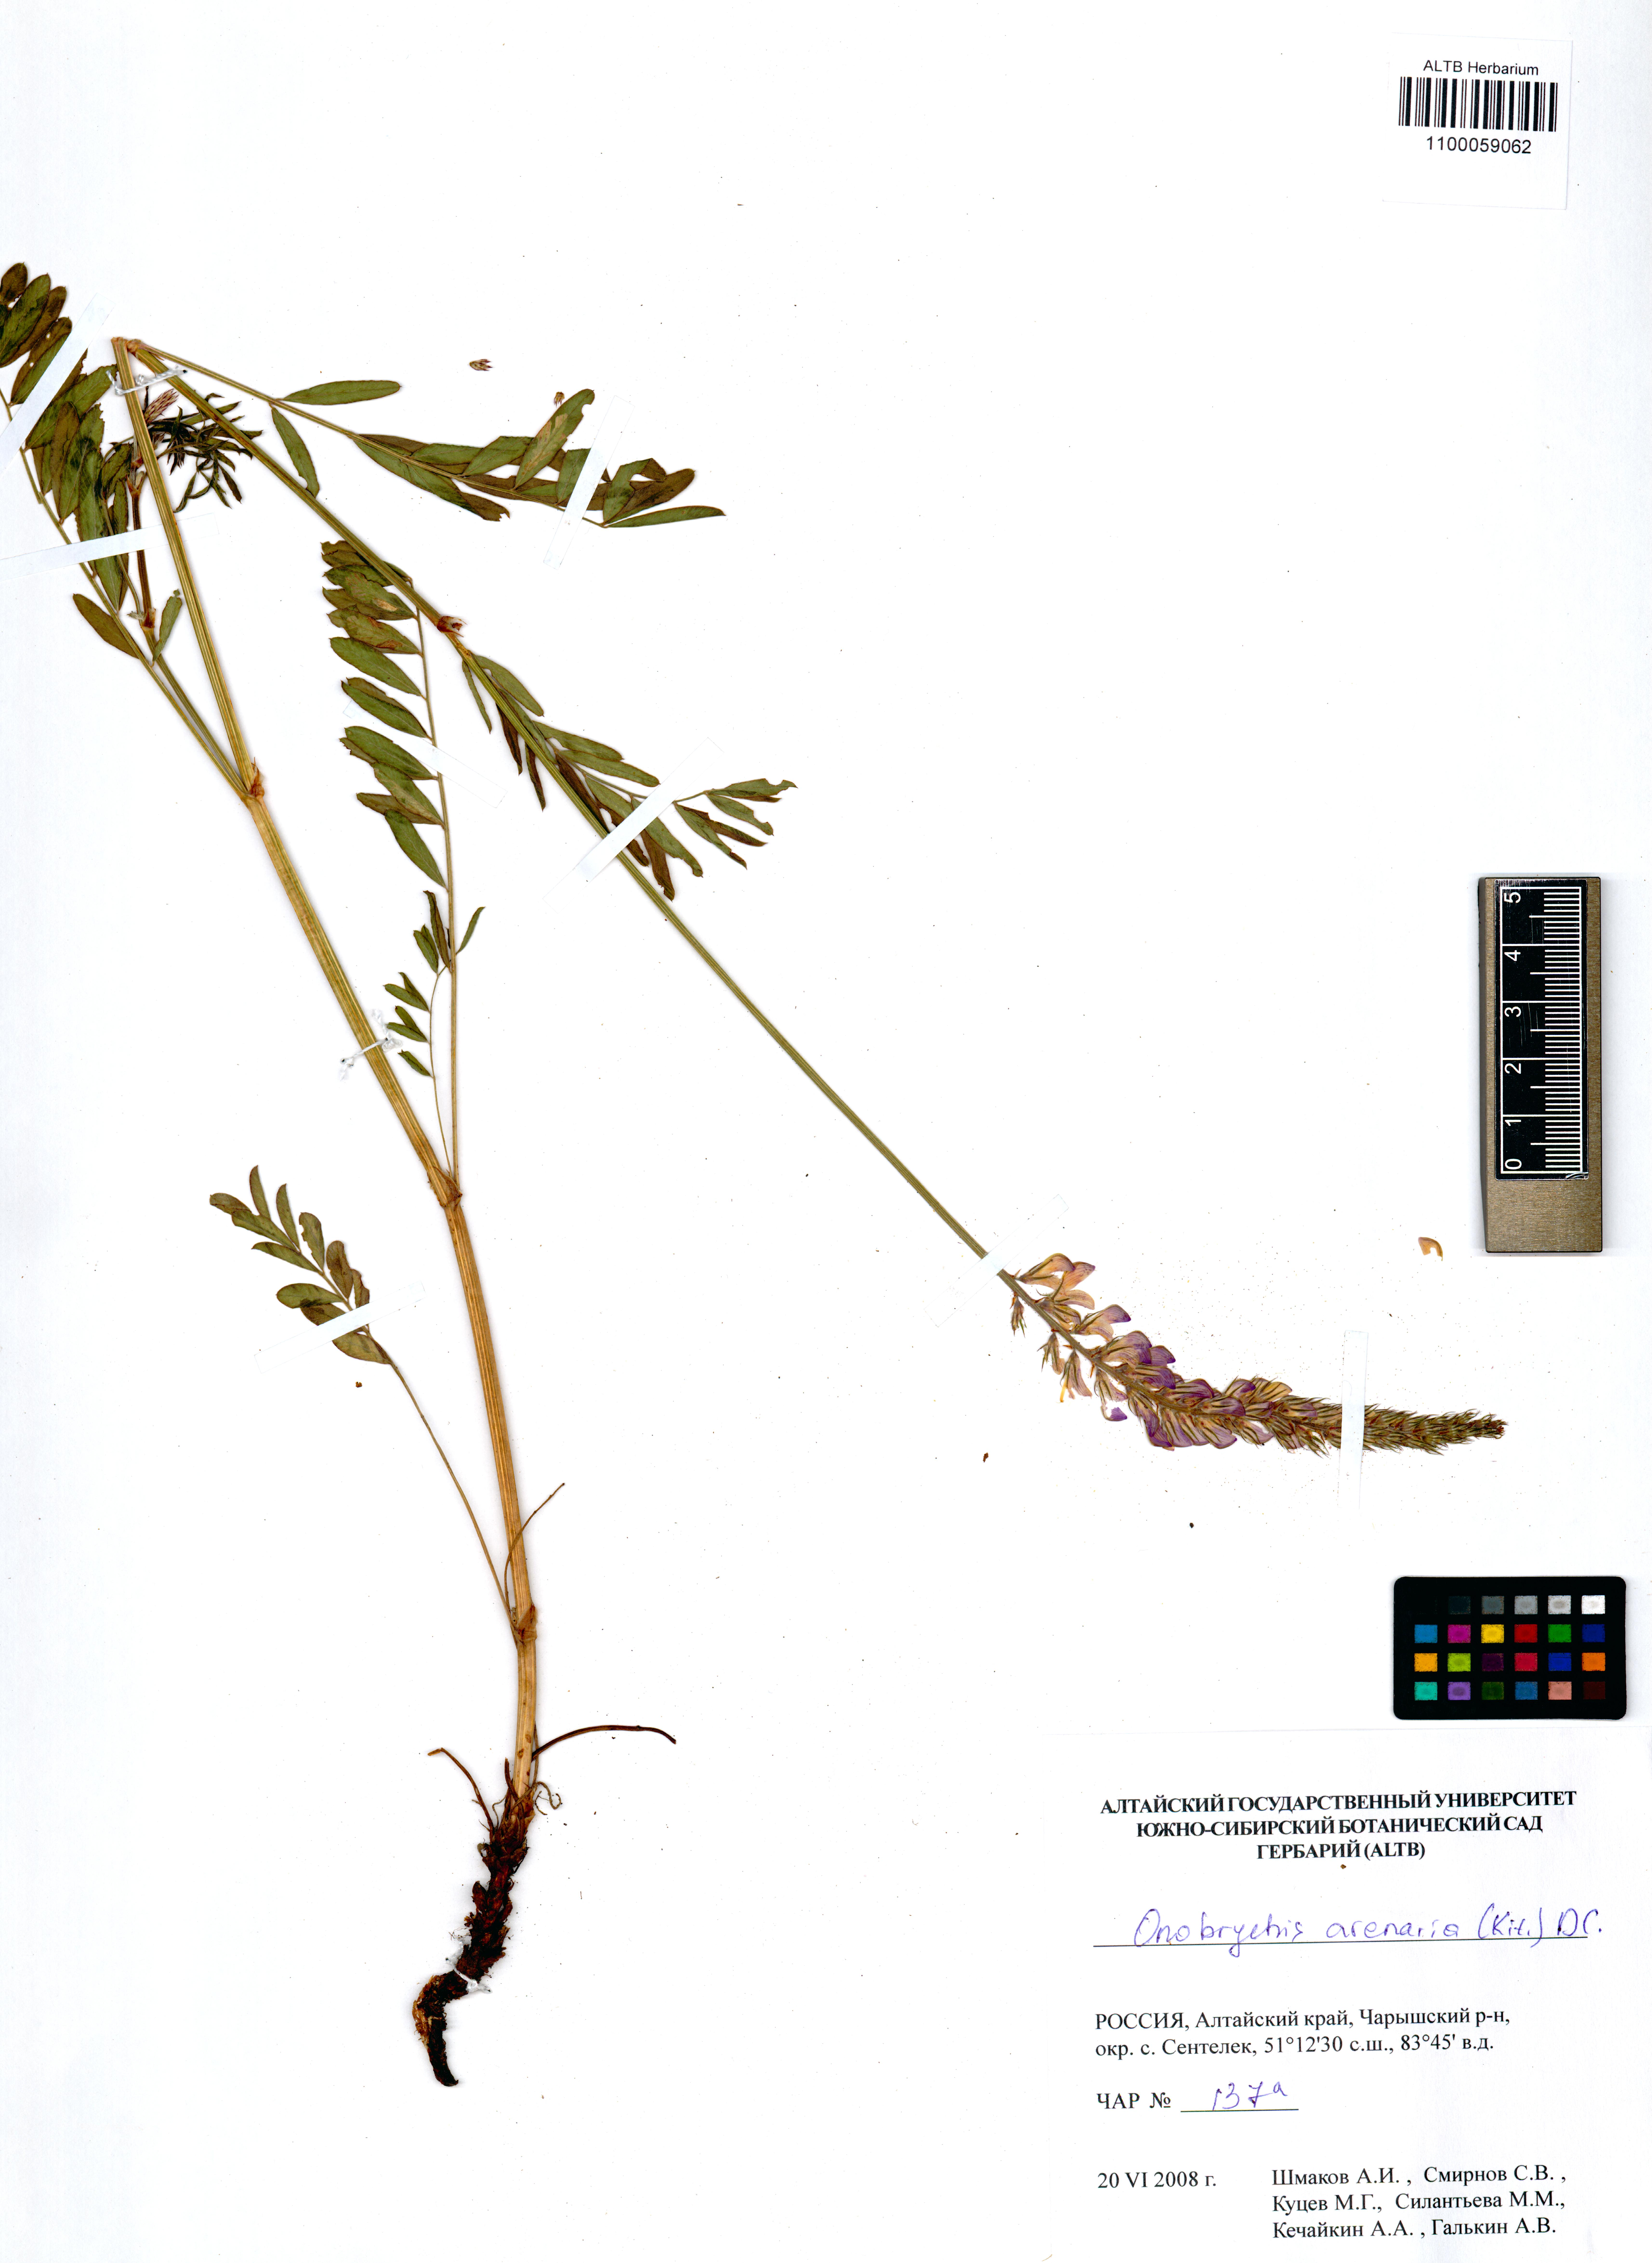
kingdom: Plantae
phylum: Tracheophyta
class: Magnoliopsida
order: Fabales
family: Fabaceae
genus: Onobrychis
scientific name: Onobrychis arenaria
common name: Sand esparcet
